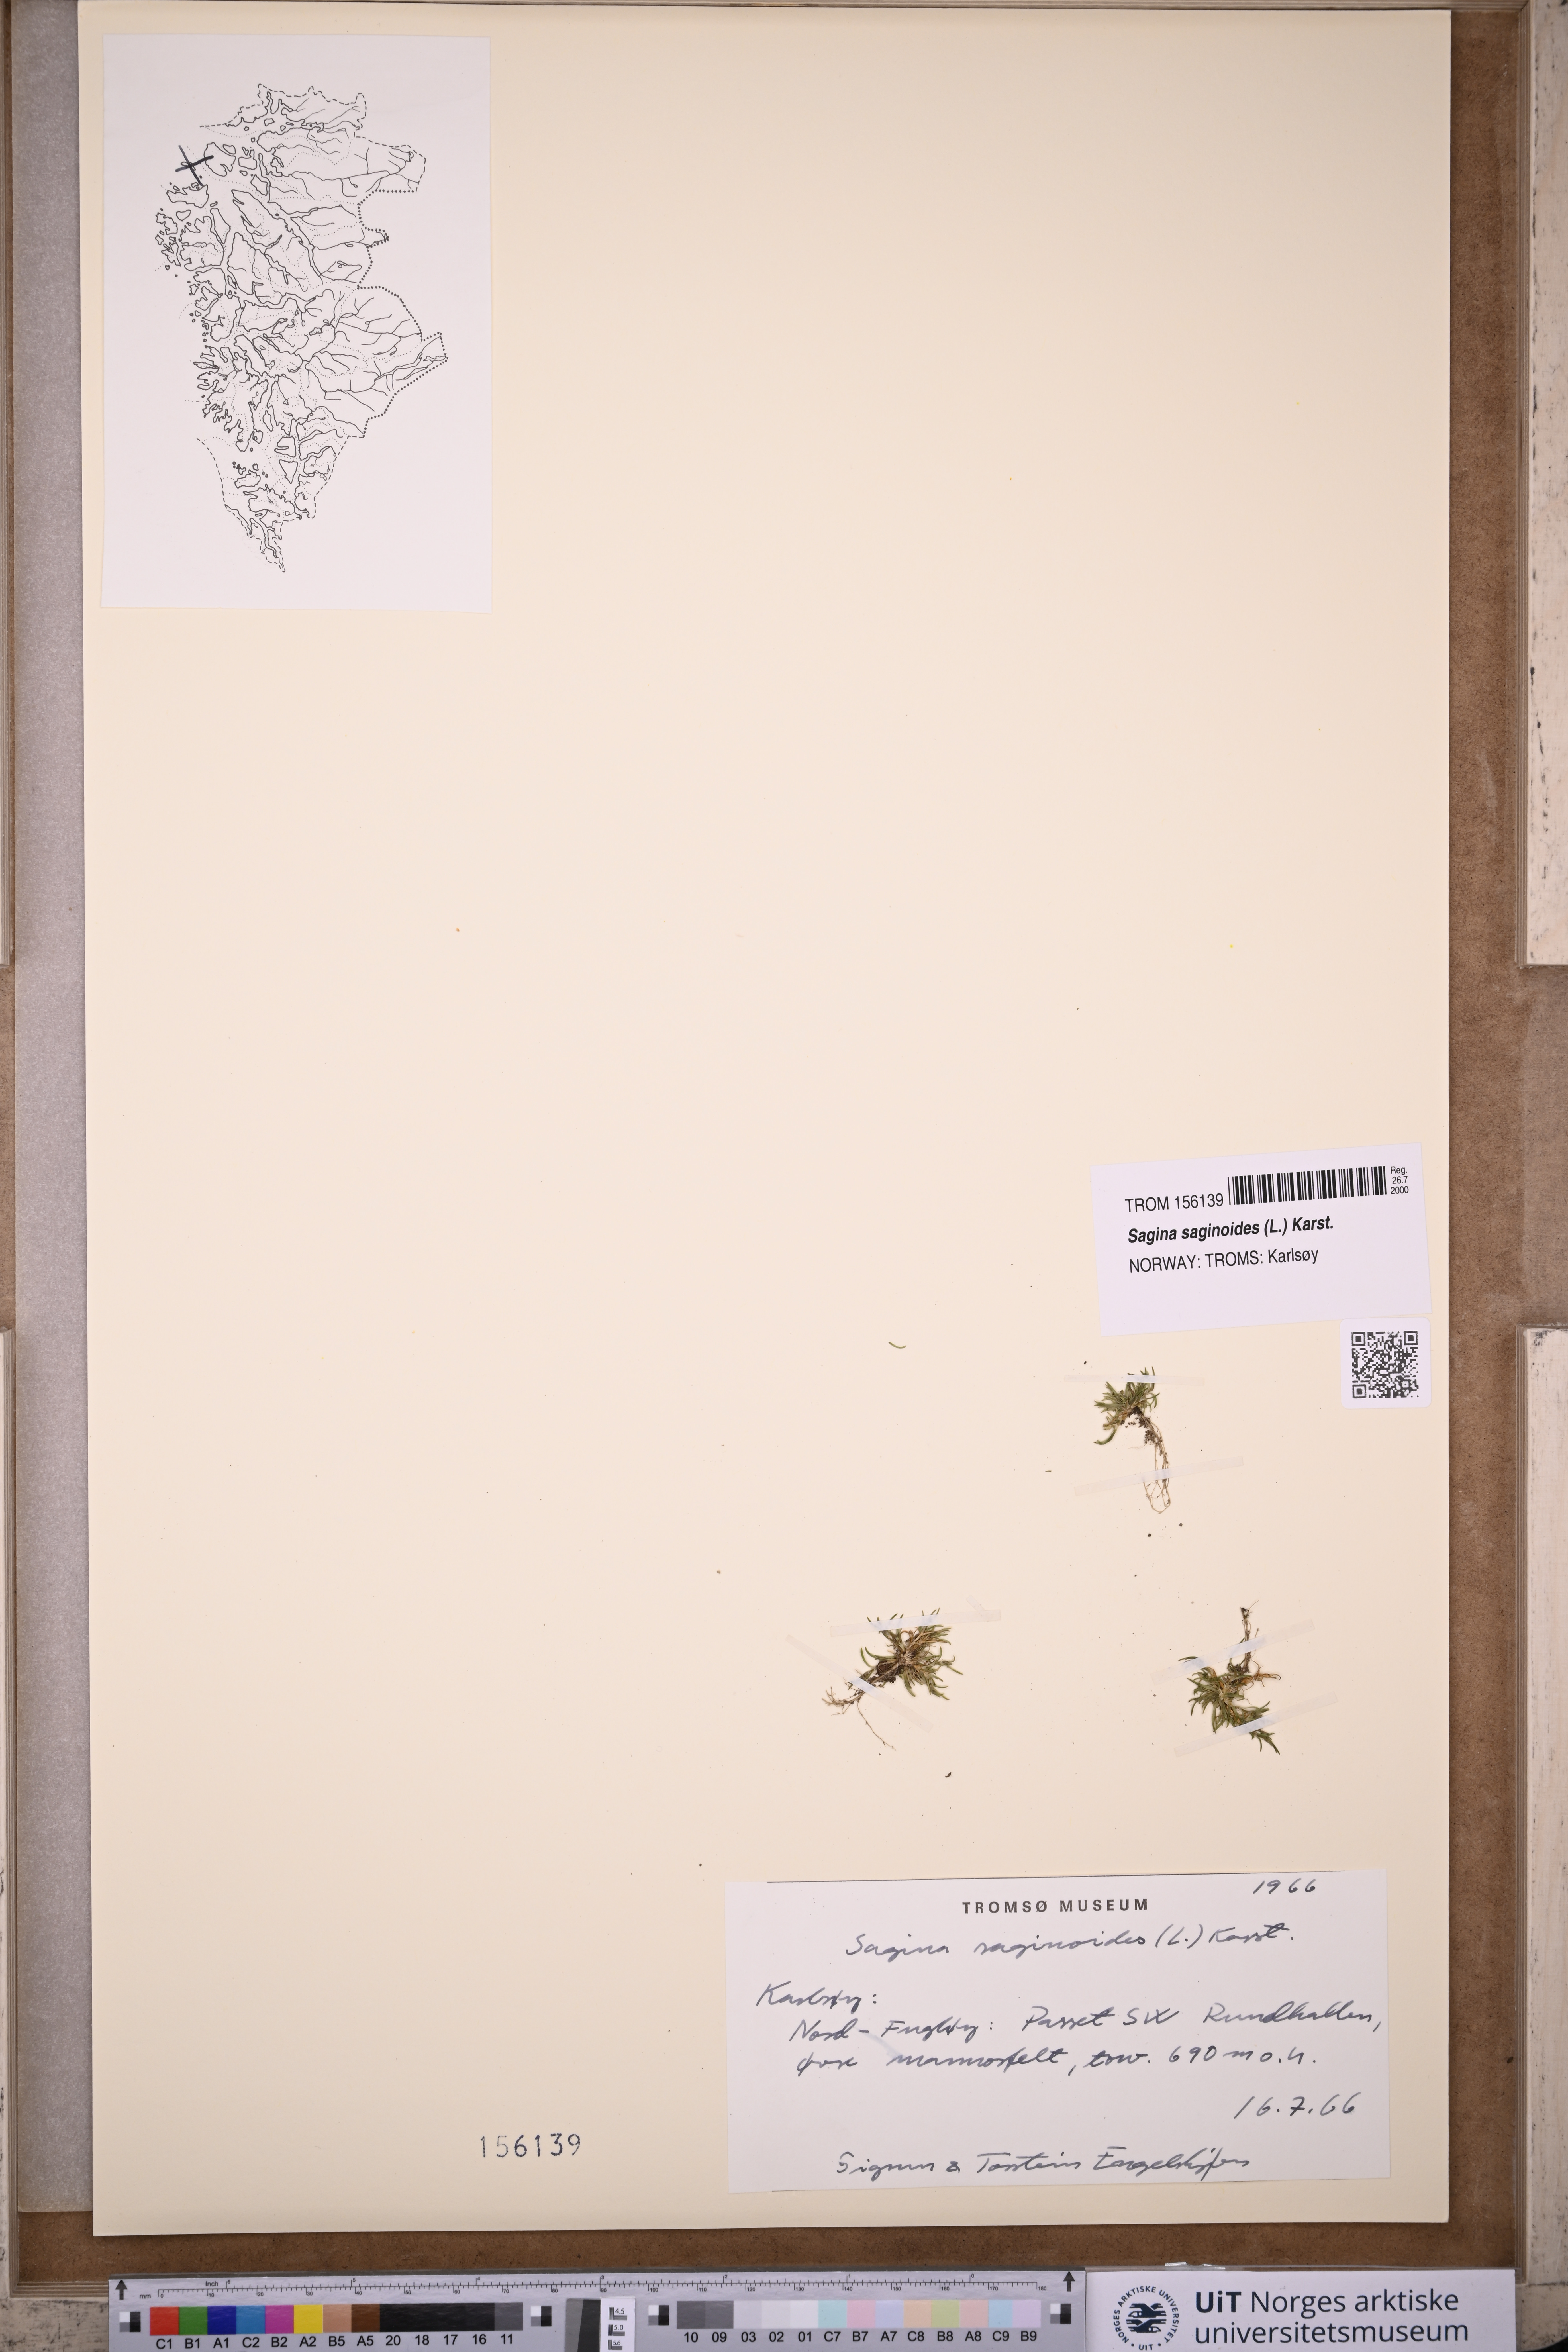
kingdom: Plantae
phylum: Tracheophyta
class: Magnoliopsida
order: Caryophyllales
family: Caryophyllaceae
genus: Sagina
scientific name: Sagina saginoides
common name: Alpine pearlwort
